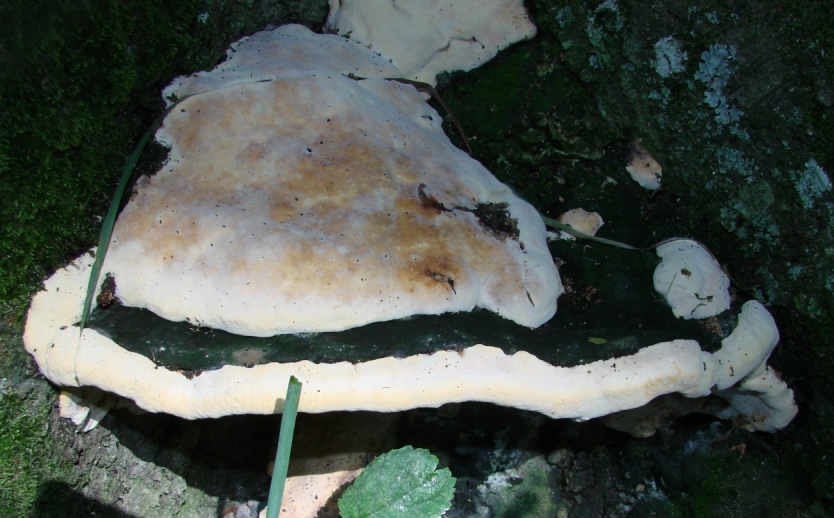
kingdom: Fungi
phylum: Basidiomycota
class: Agaricomycetes
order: Polyporales
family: Polyporaceae
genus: Vanderbylia
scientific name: Vanderbylia fraxinea
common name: stor kanelporesvamp
